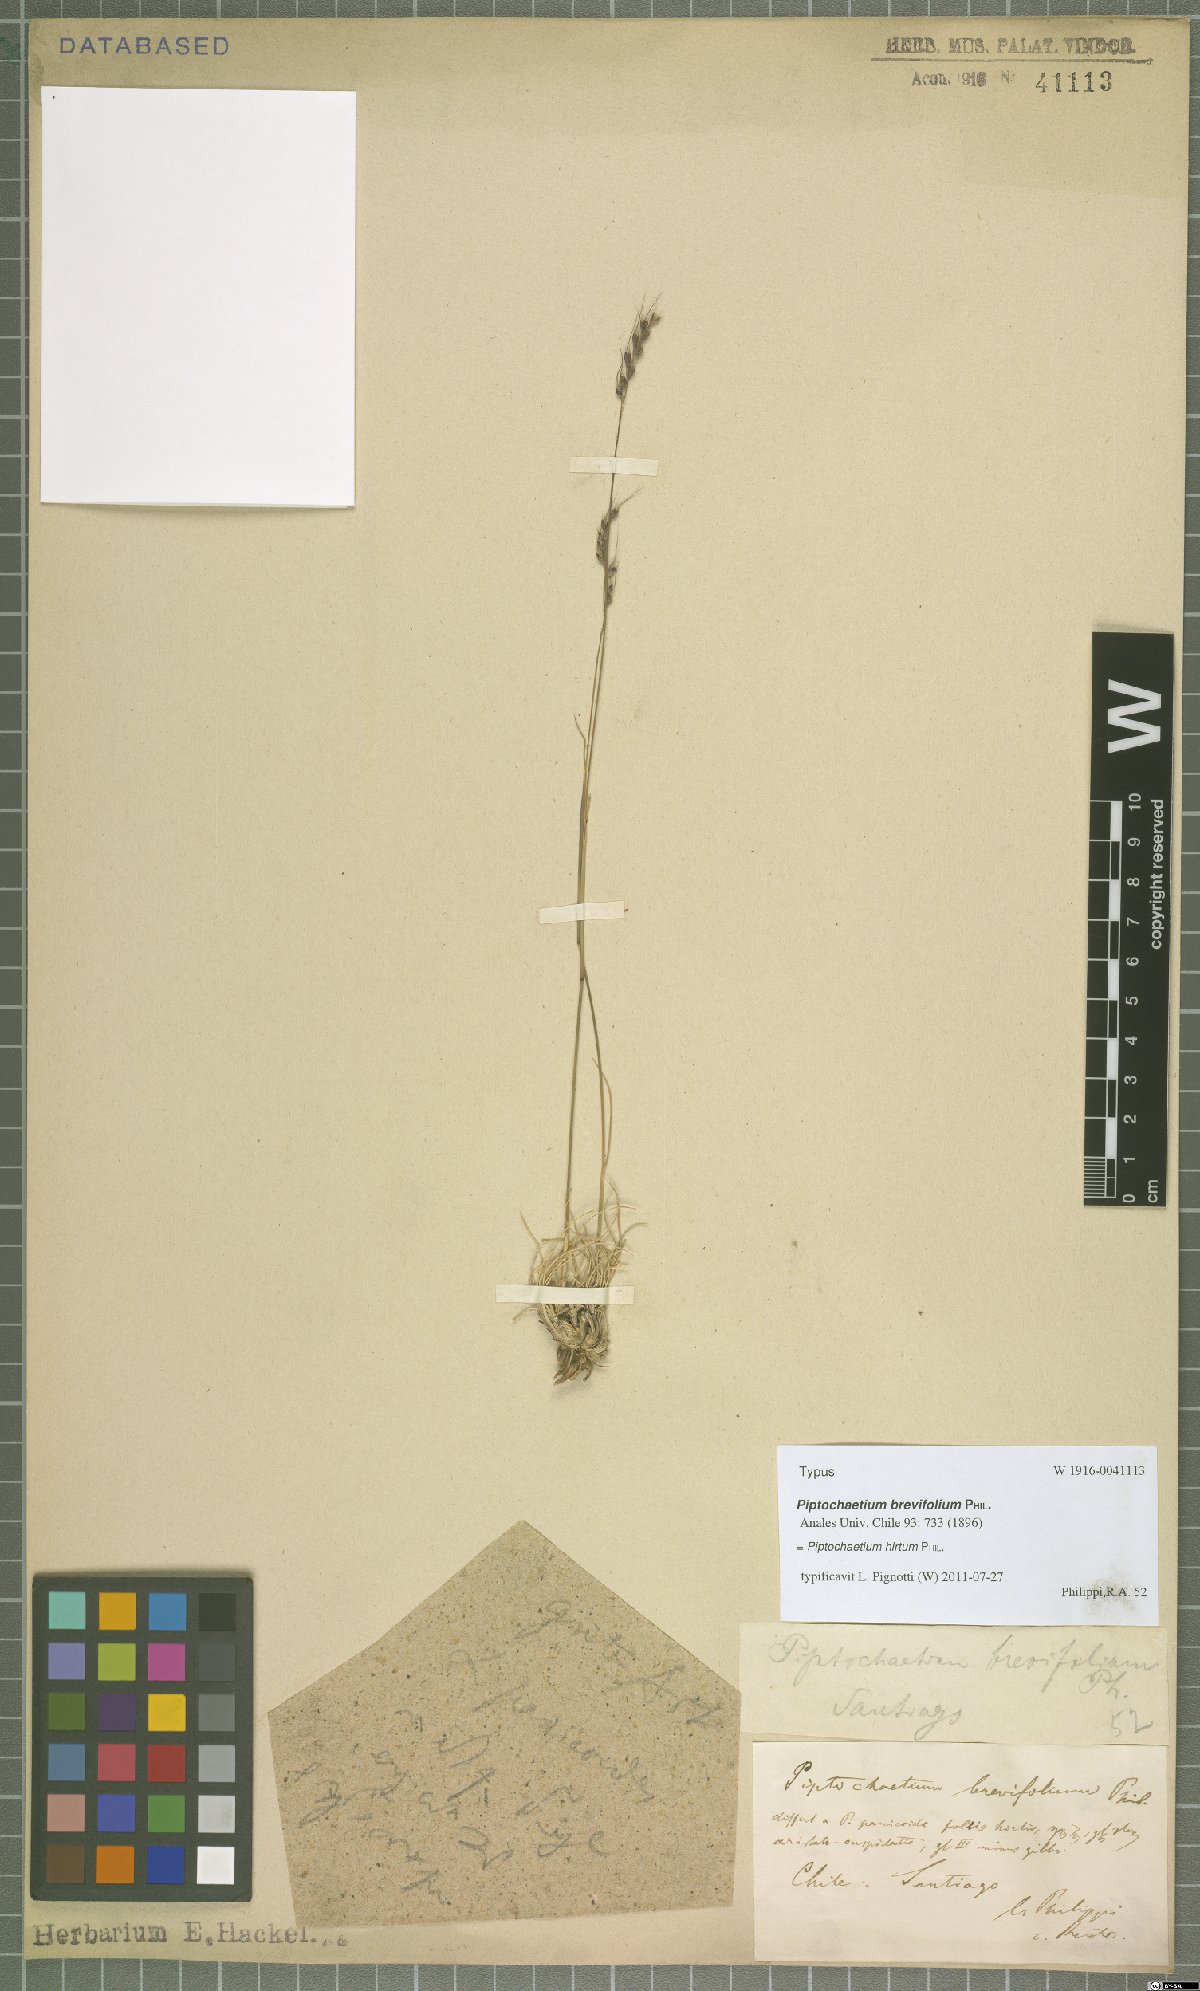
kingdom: Plantae
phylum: Tracheophyta
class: Liliopsida
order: Poales
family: Poaceae
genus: Piptochaetium
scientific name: Piptochaetium hirtum
